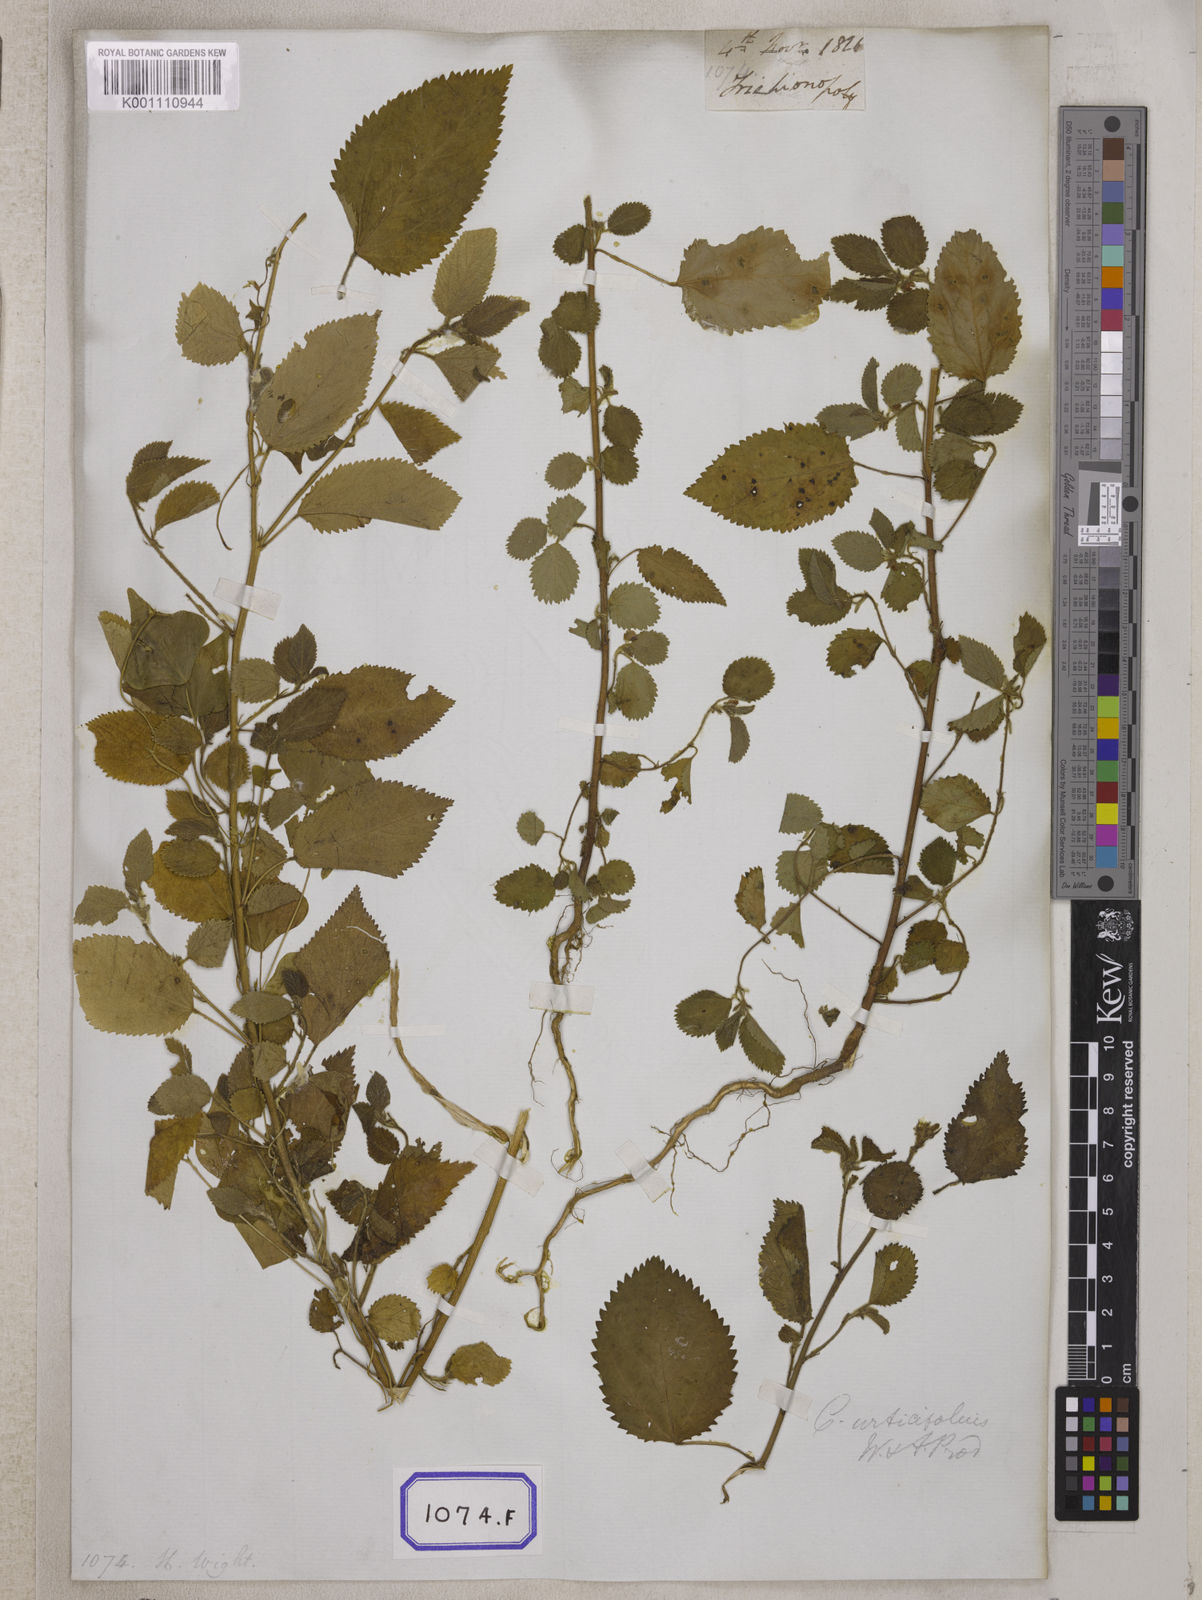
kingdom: Plantae
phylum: Tracheophyta
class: Magnoliopsida
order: Malvales
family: Malvaceae
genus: Corchorus
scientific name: Corchorus urticifolius
